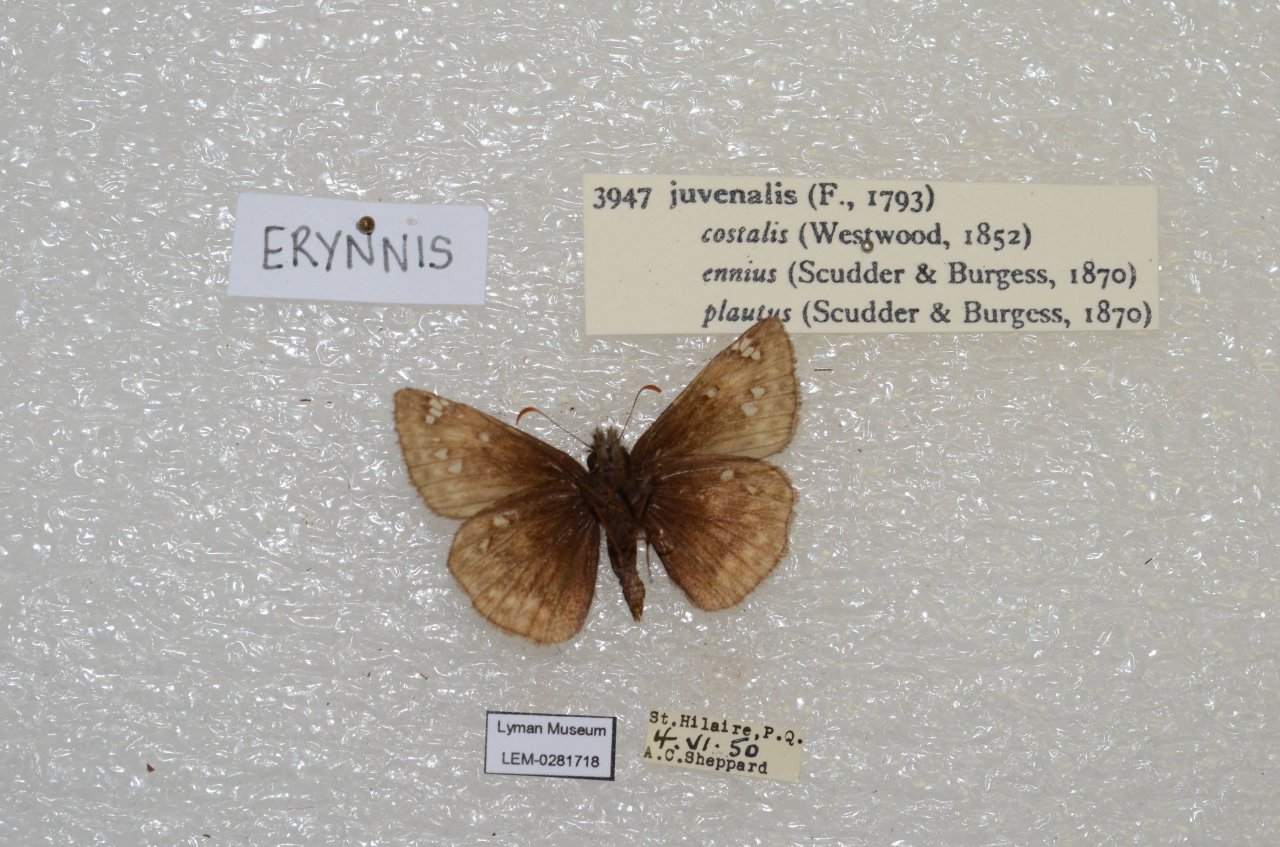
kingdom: Animalia
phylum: Arthropoda
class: Insecta
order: Lepidoptera
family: Hesperiidae
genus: Gesta
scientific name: Gesta
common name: Juvenal's Duskywing
